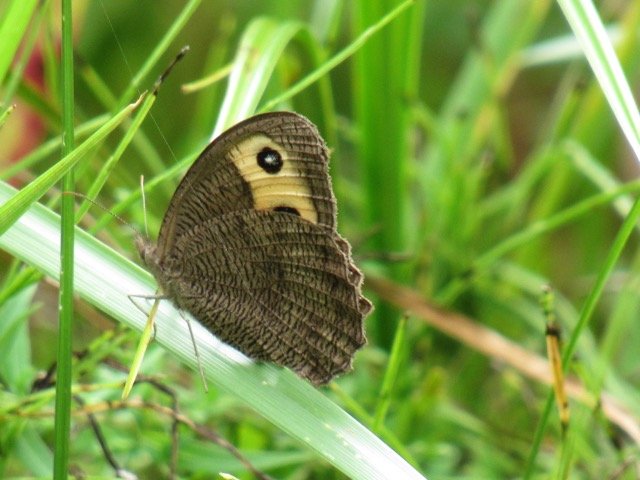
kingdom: Animalia
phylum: Arthropoda
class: Insecta
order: Lepidoptera
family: Nymphalidae
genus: Cercyonis
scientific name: Cercyonis pegala
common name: Common Wood-Nymph
